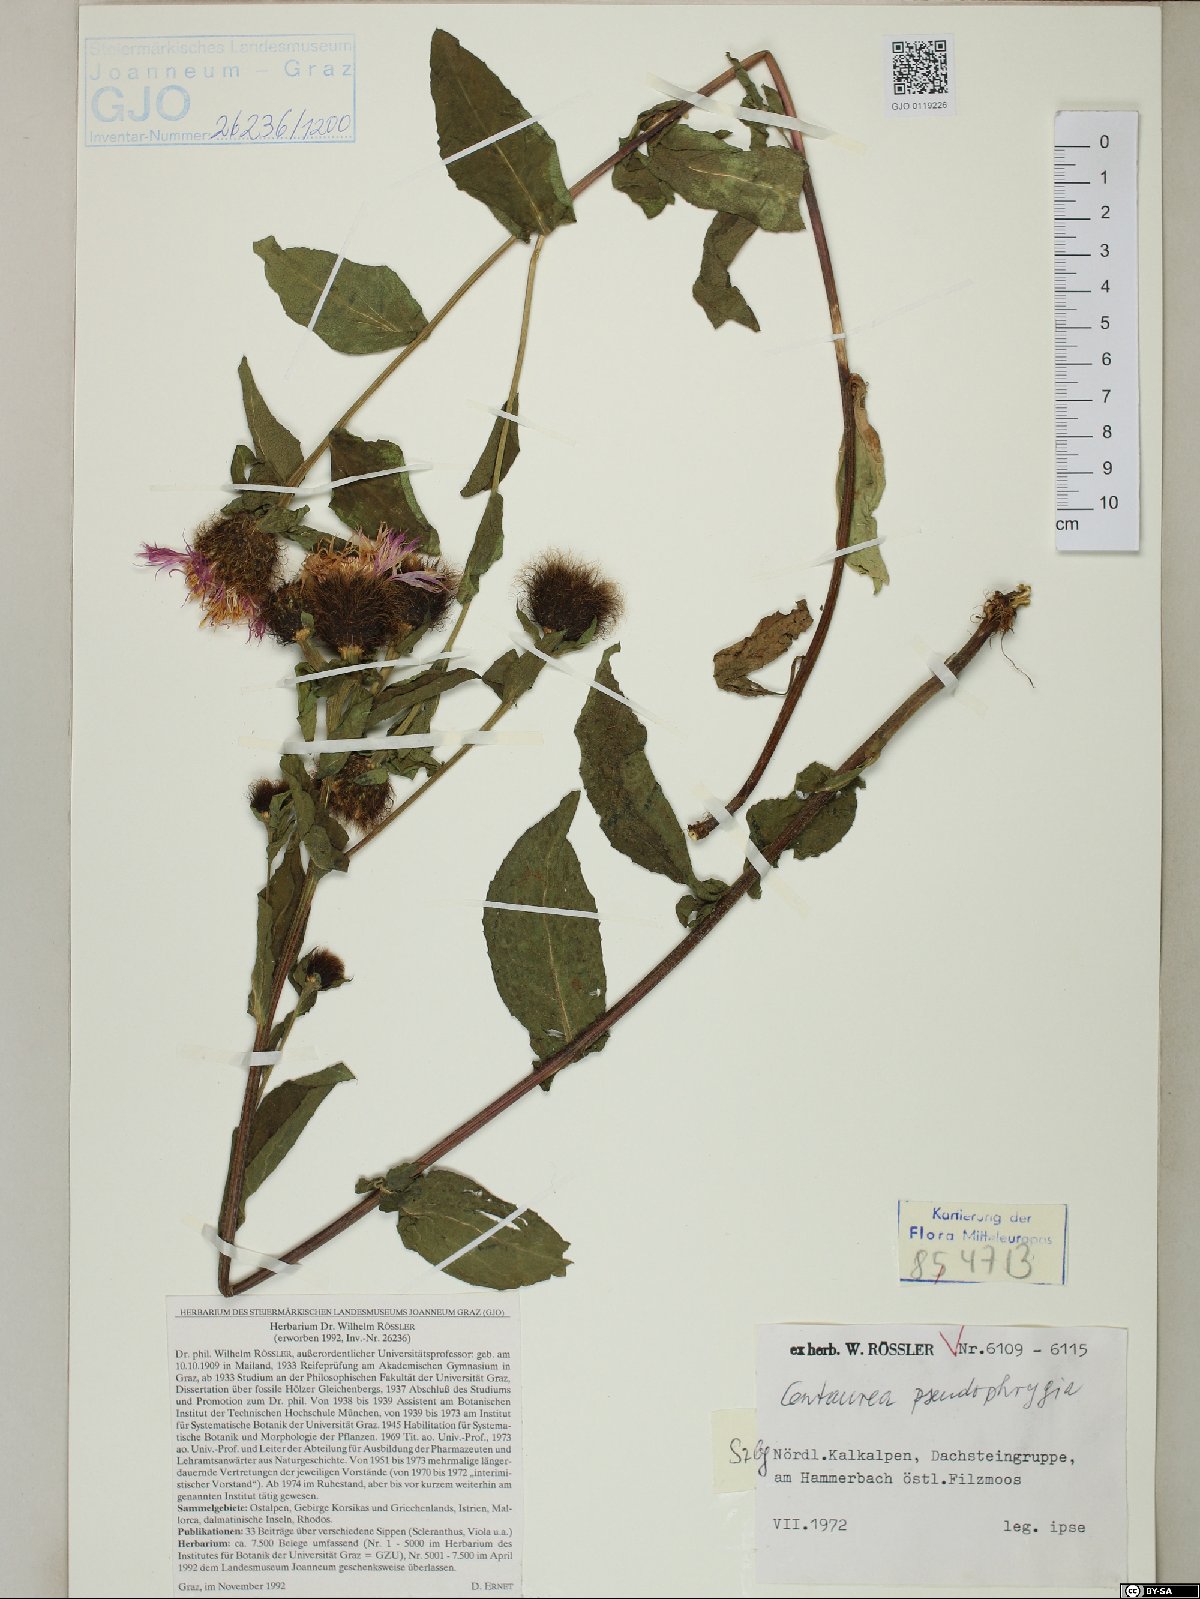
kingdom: Plantae
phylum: Tracheophyta
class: Magnoliopsida
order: Asterales
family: Asteraceae
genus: Centaurea
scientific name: Centaurea pseudophrygia
